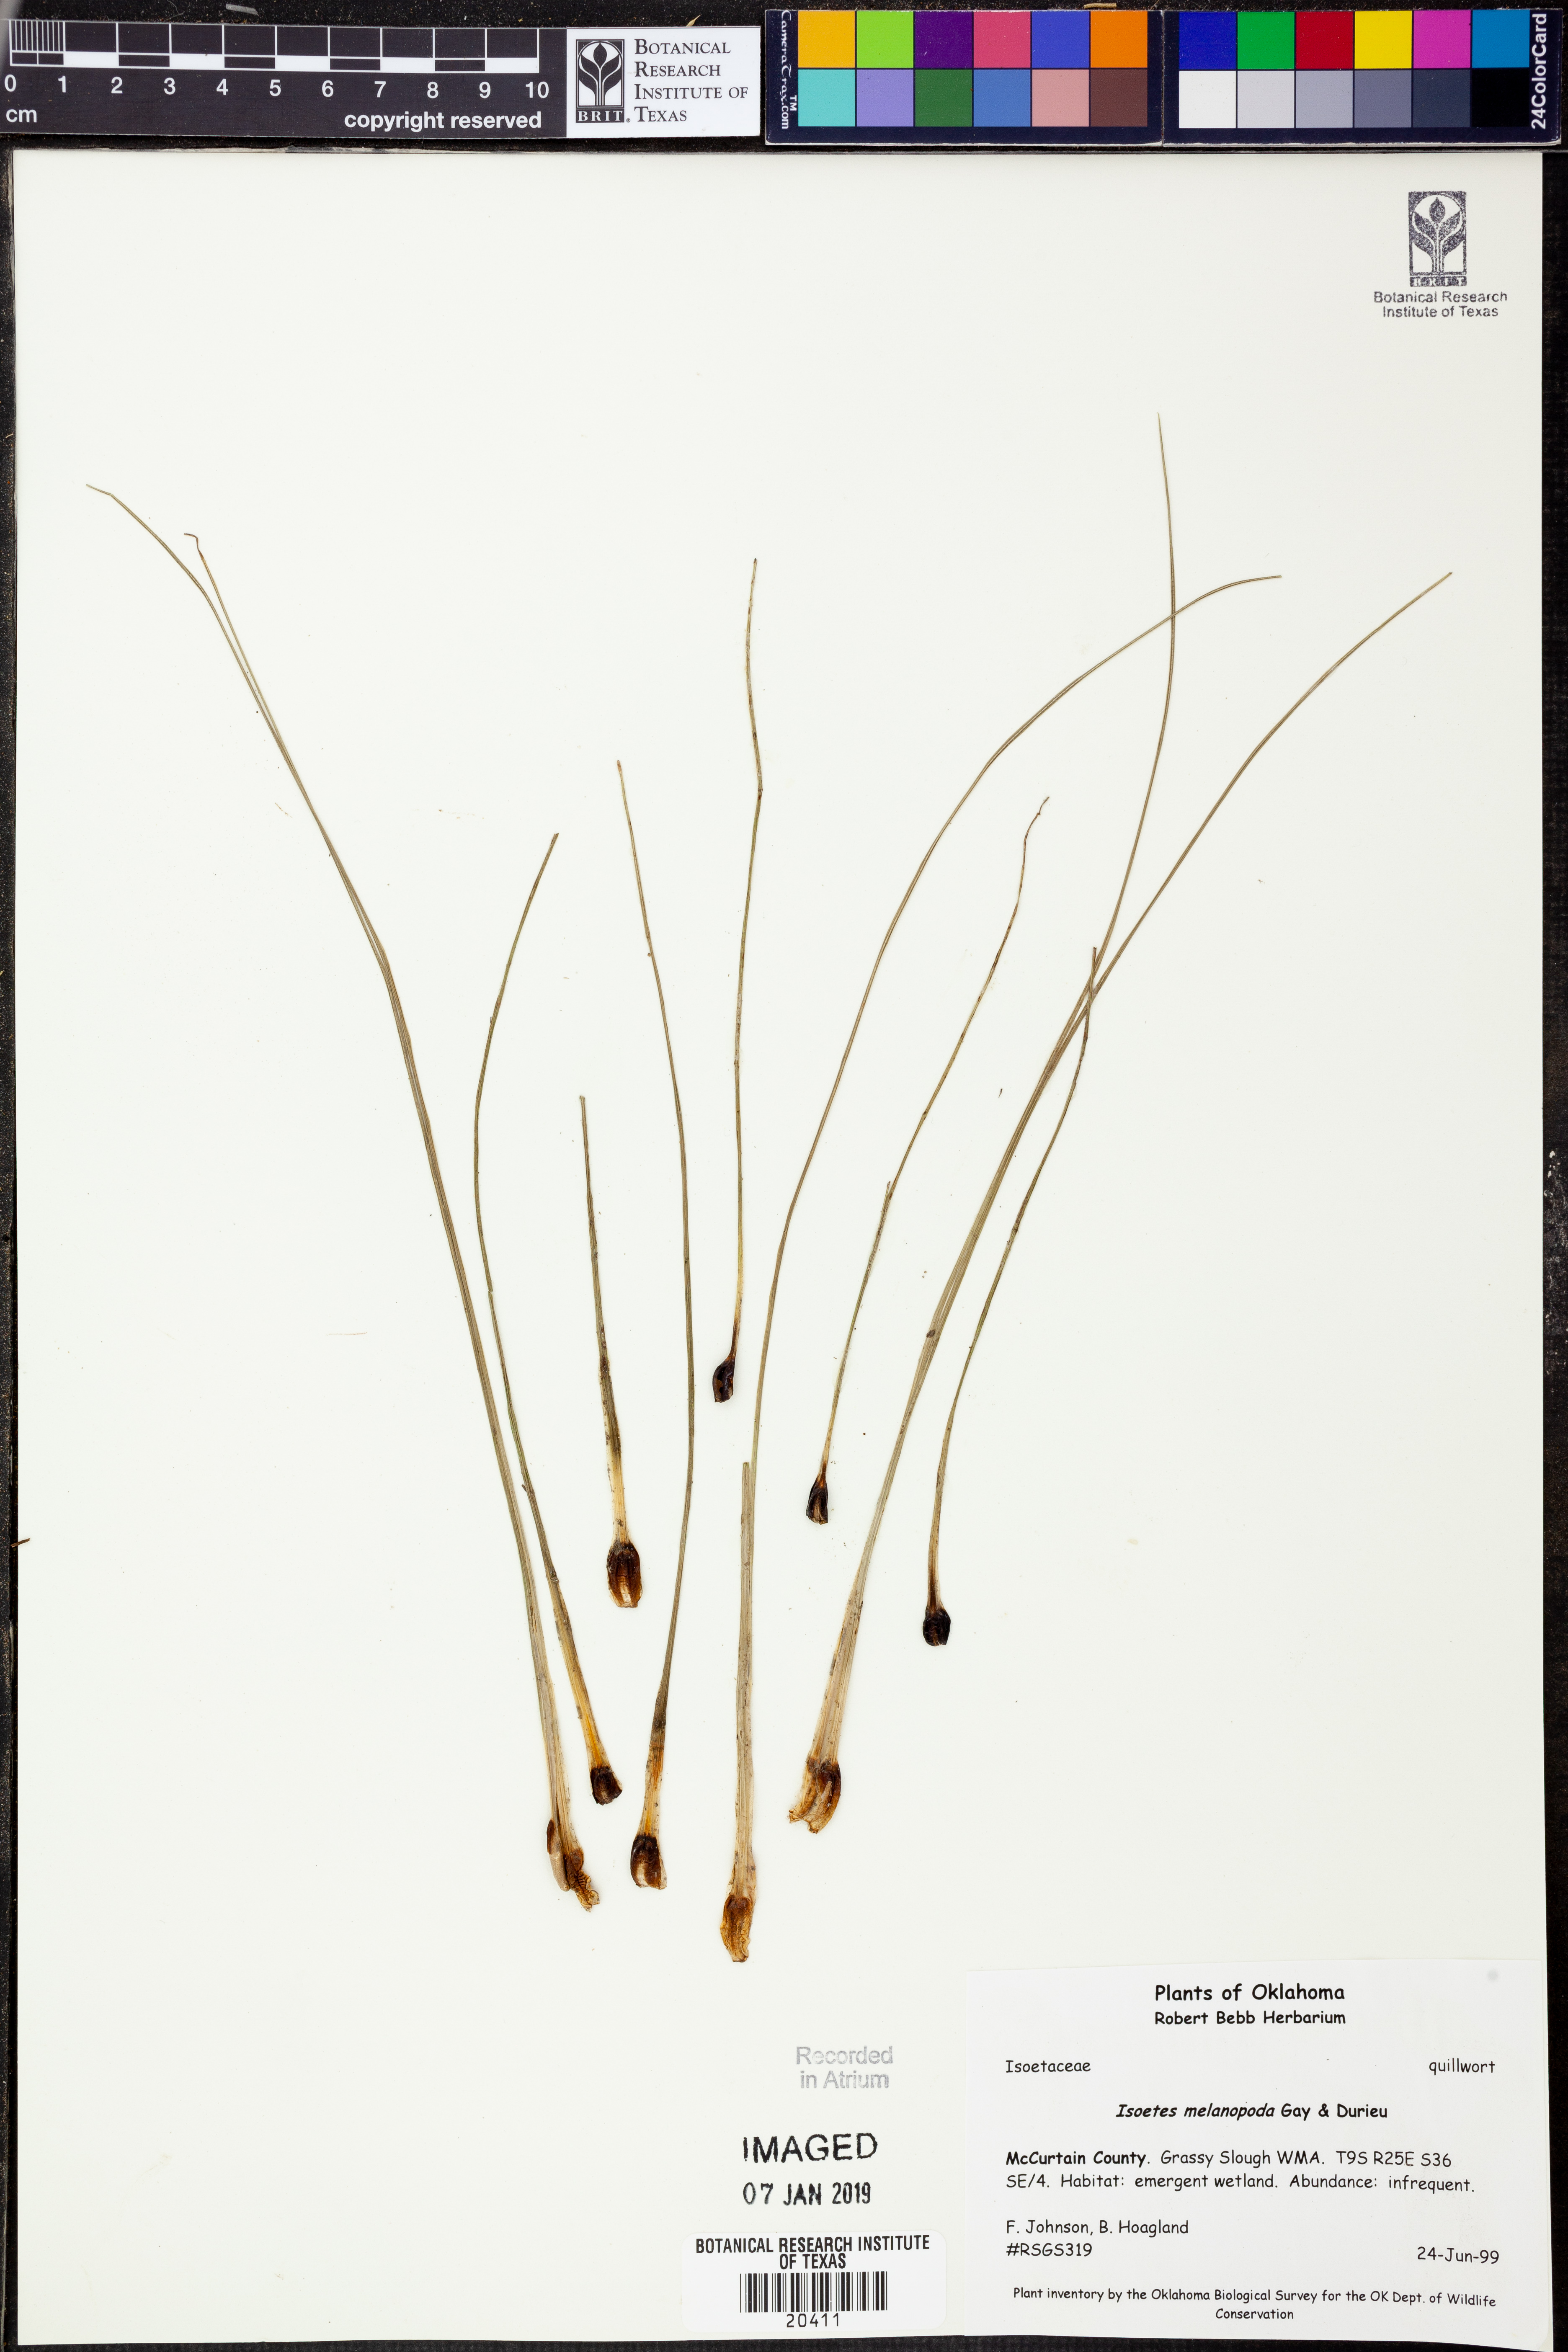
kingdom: Plantae
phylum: Tracheophyta
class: Lycopodiopsida
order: Isoetales
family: Isoetaceae
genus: Isoetes
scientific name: Isoetes melanopoda
